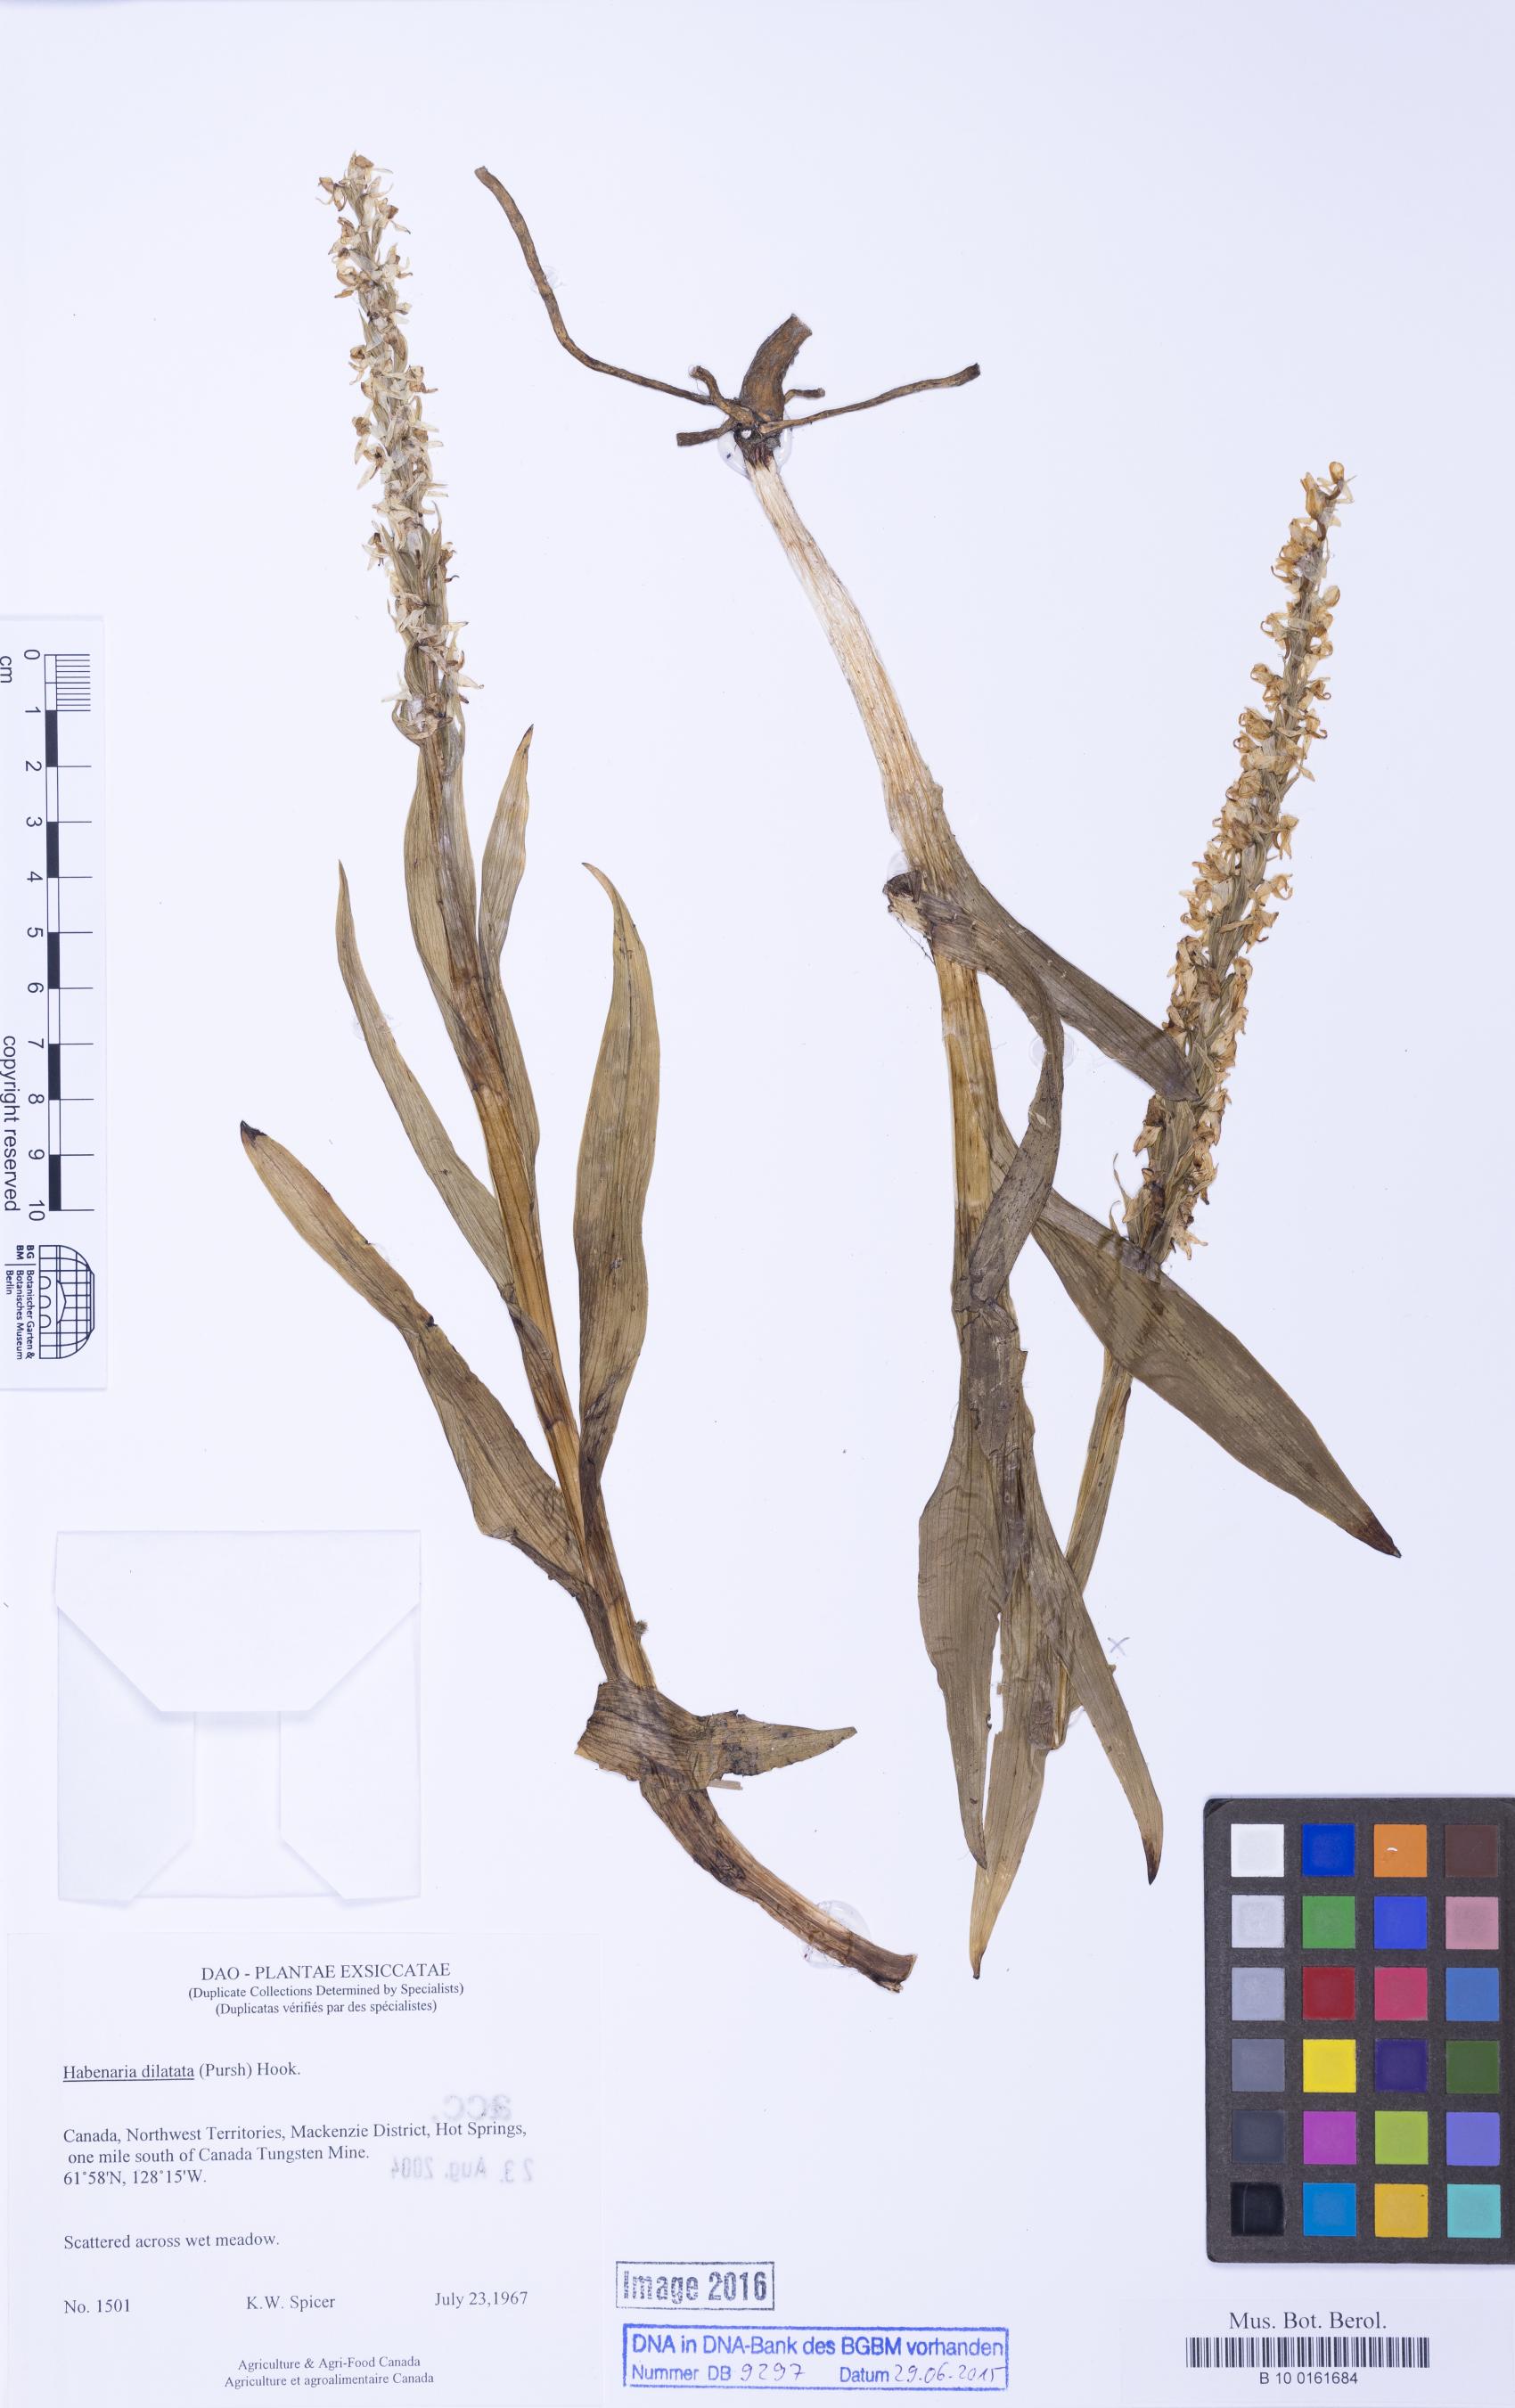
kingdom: Plantae
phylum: Tracheophyta
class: Liliopsida
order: Asparagales
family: Orchidaceae
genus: Platanthera
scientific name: Platanthera dilatata
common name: Bog candles
